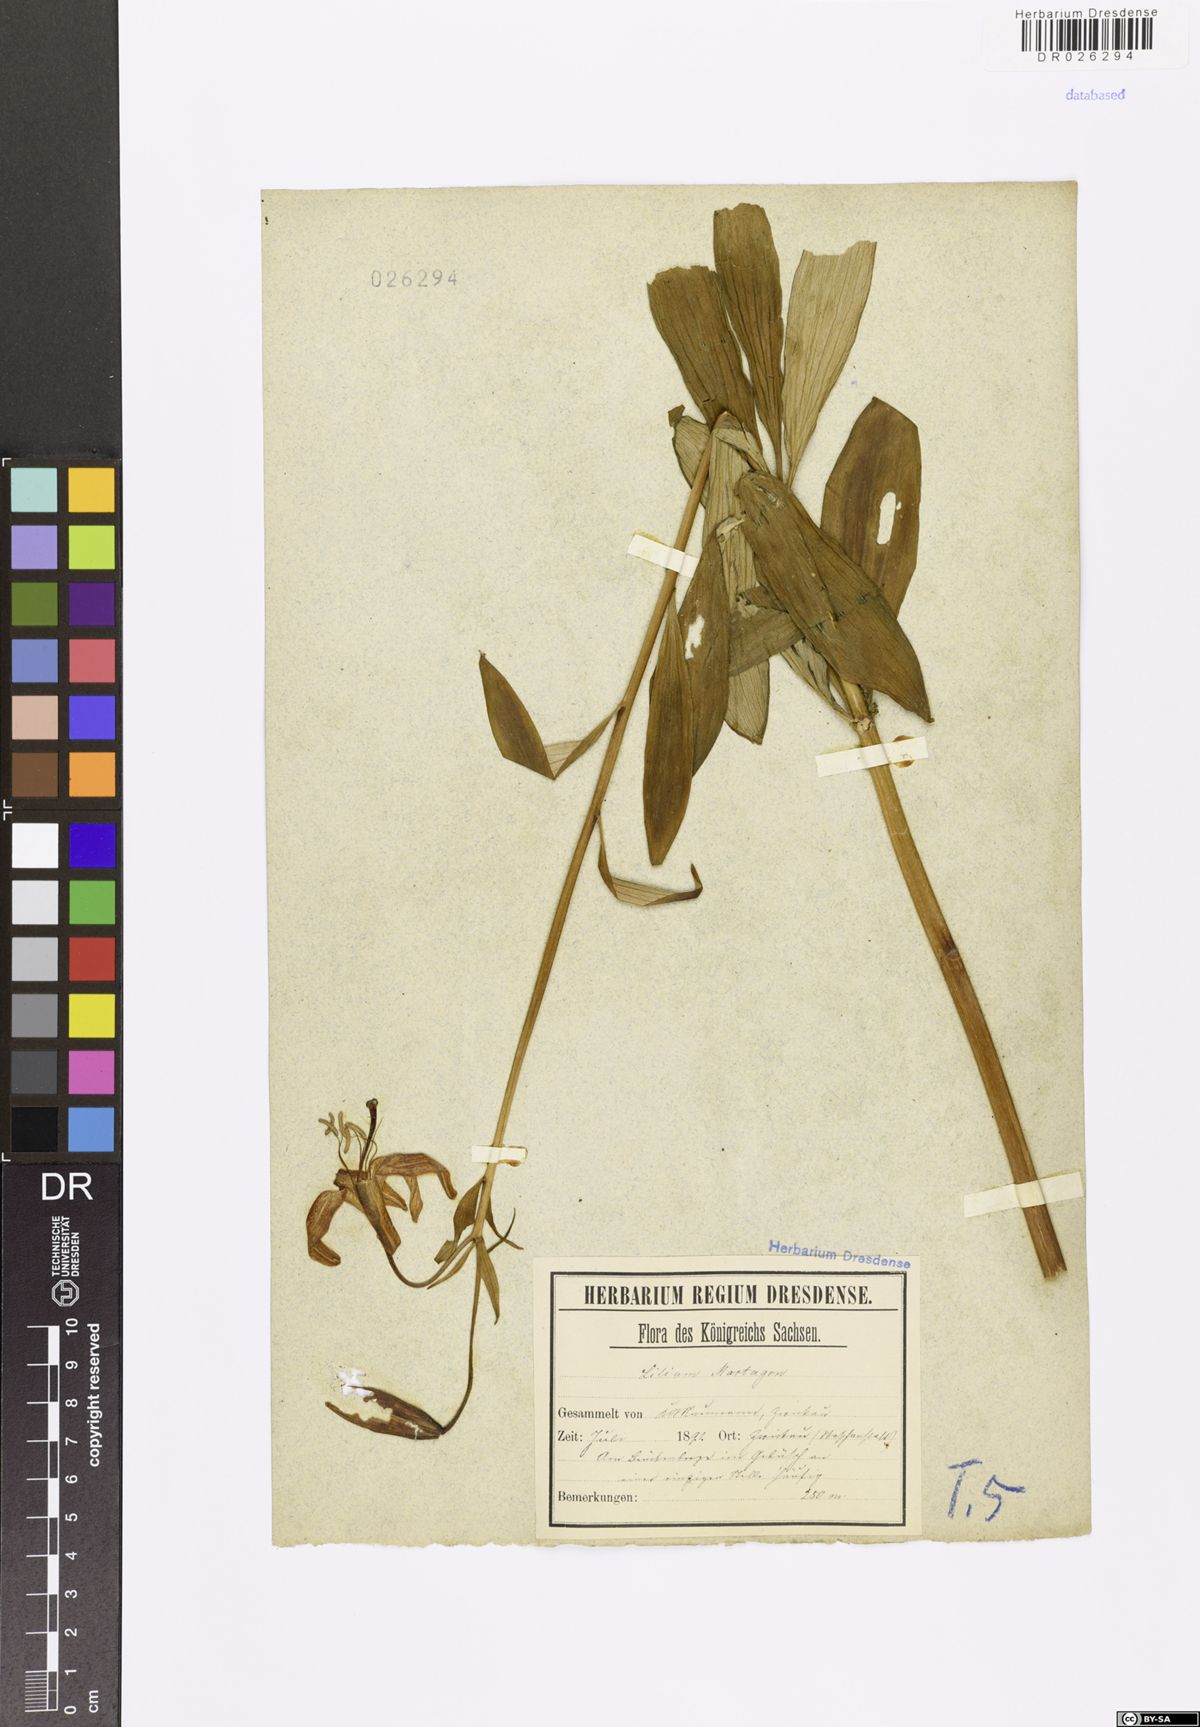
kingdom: Plantae
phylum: Tracheophyta
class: Liliopsida
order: Liliales
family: Liliaceae
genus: Lilium
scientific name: Lilium martagon
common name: Martagon lily
